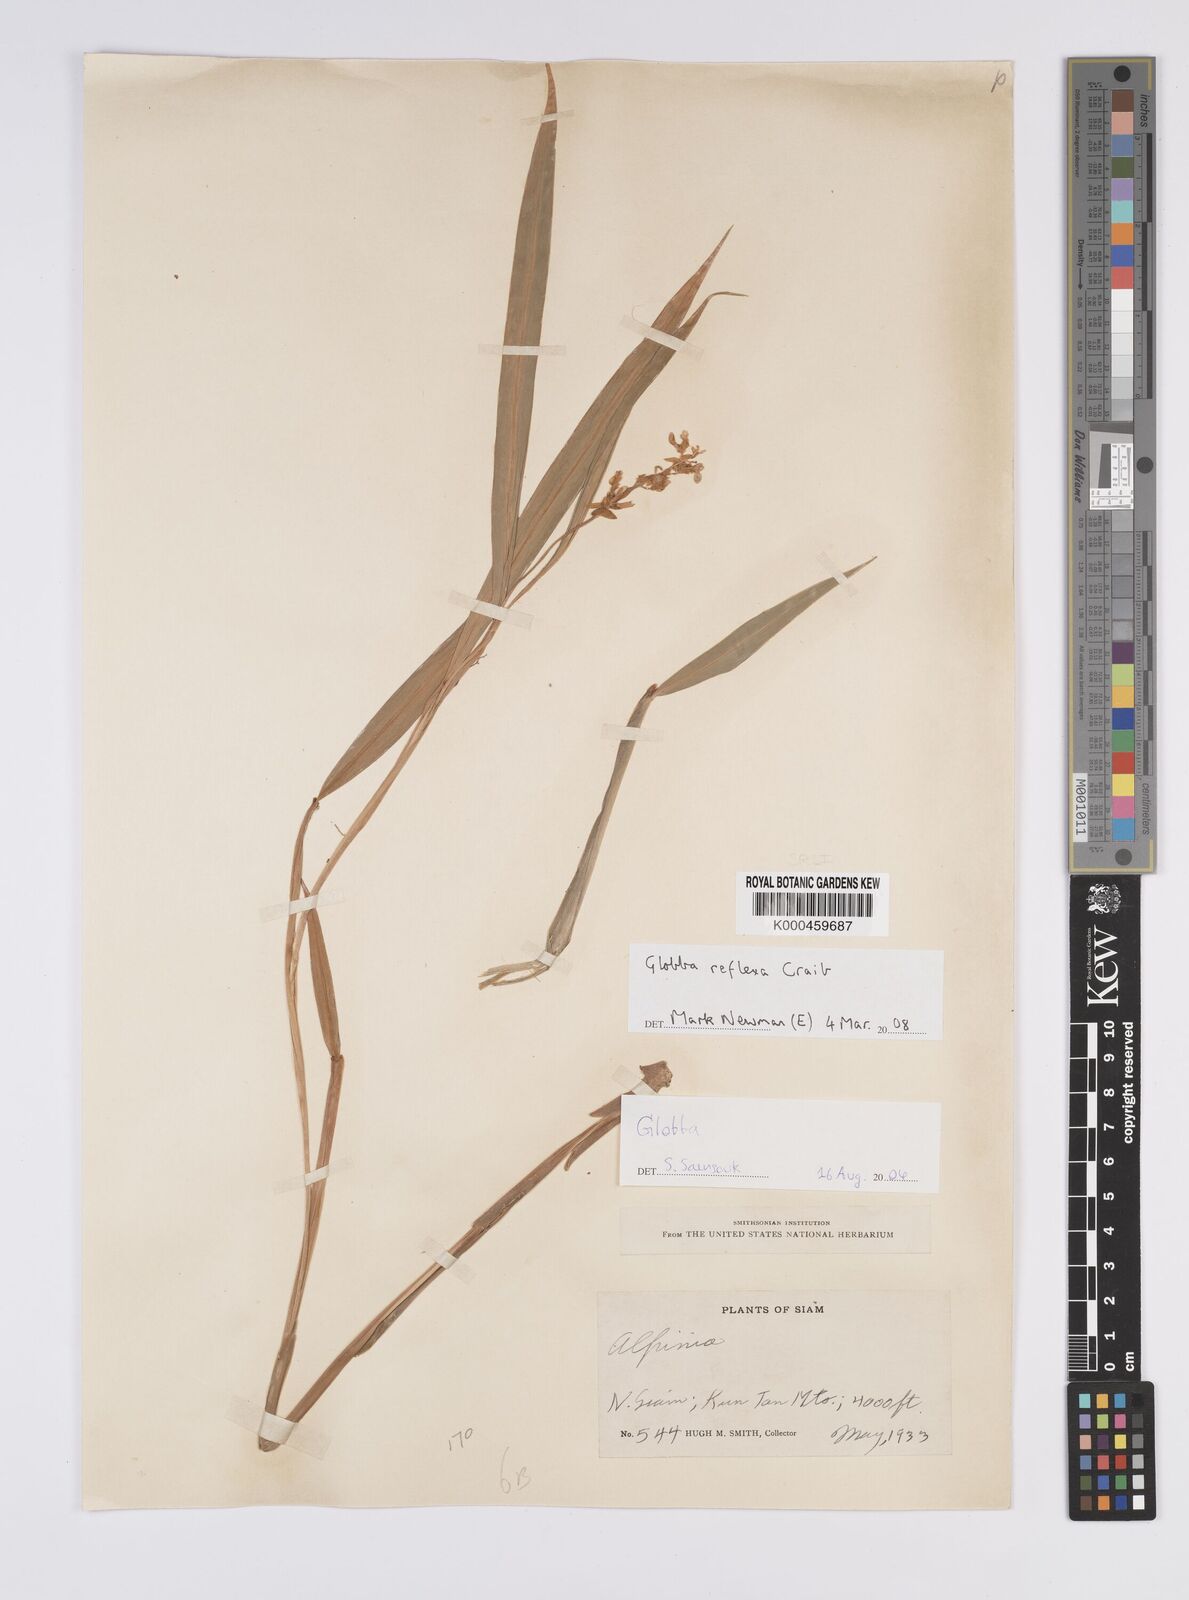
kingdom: Plantae
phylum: Tracheophyta
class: Liliopsida
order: Zingiberales
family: Zingiberaceae
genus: Globba
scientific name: Globba
